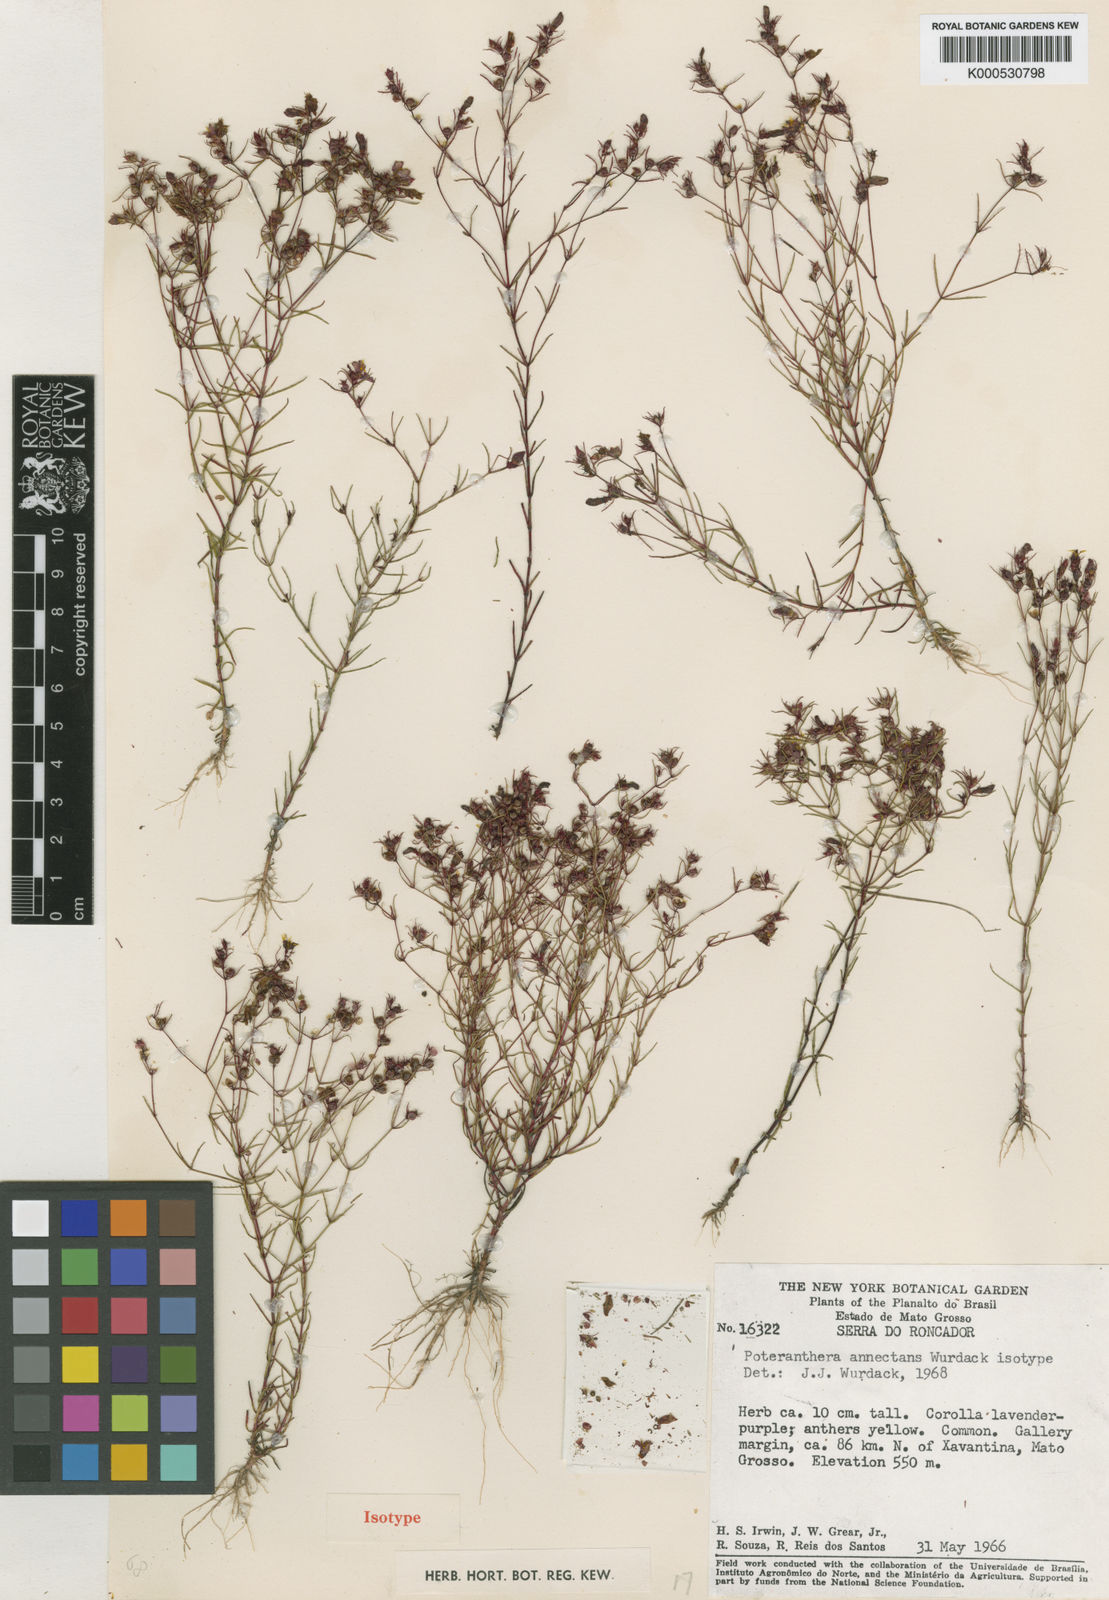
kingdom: Plantae
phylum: Tracheophyta
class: Magnoliopsida
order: Myrtales
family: Melastomataceae
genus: Poteranthera
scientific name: Poteranthera annectans
